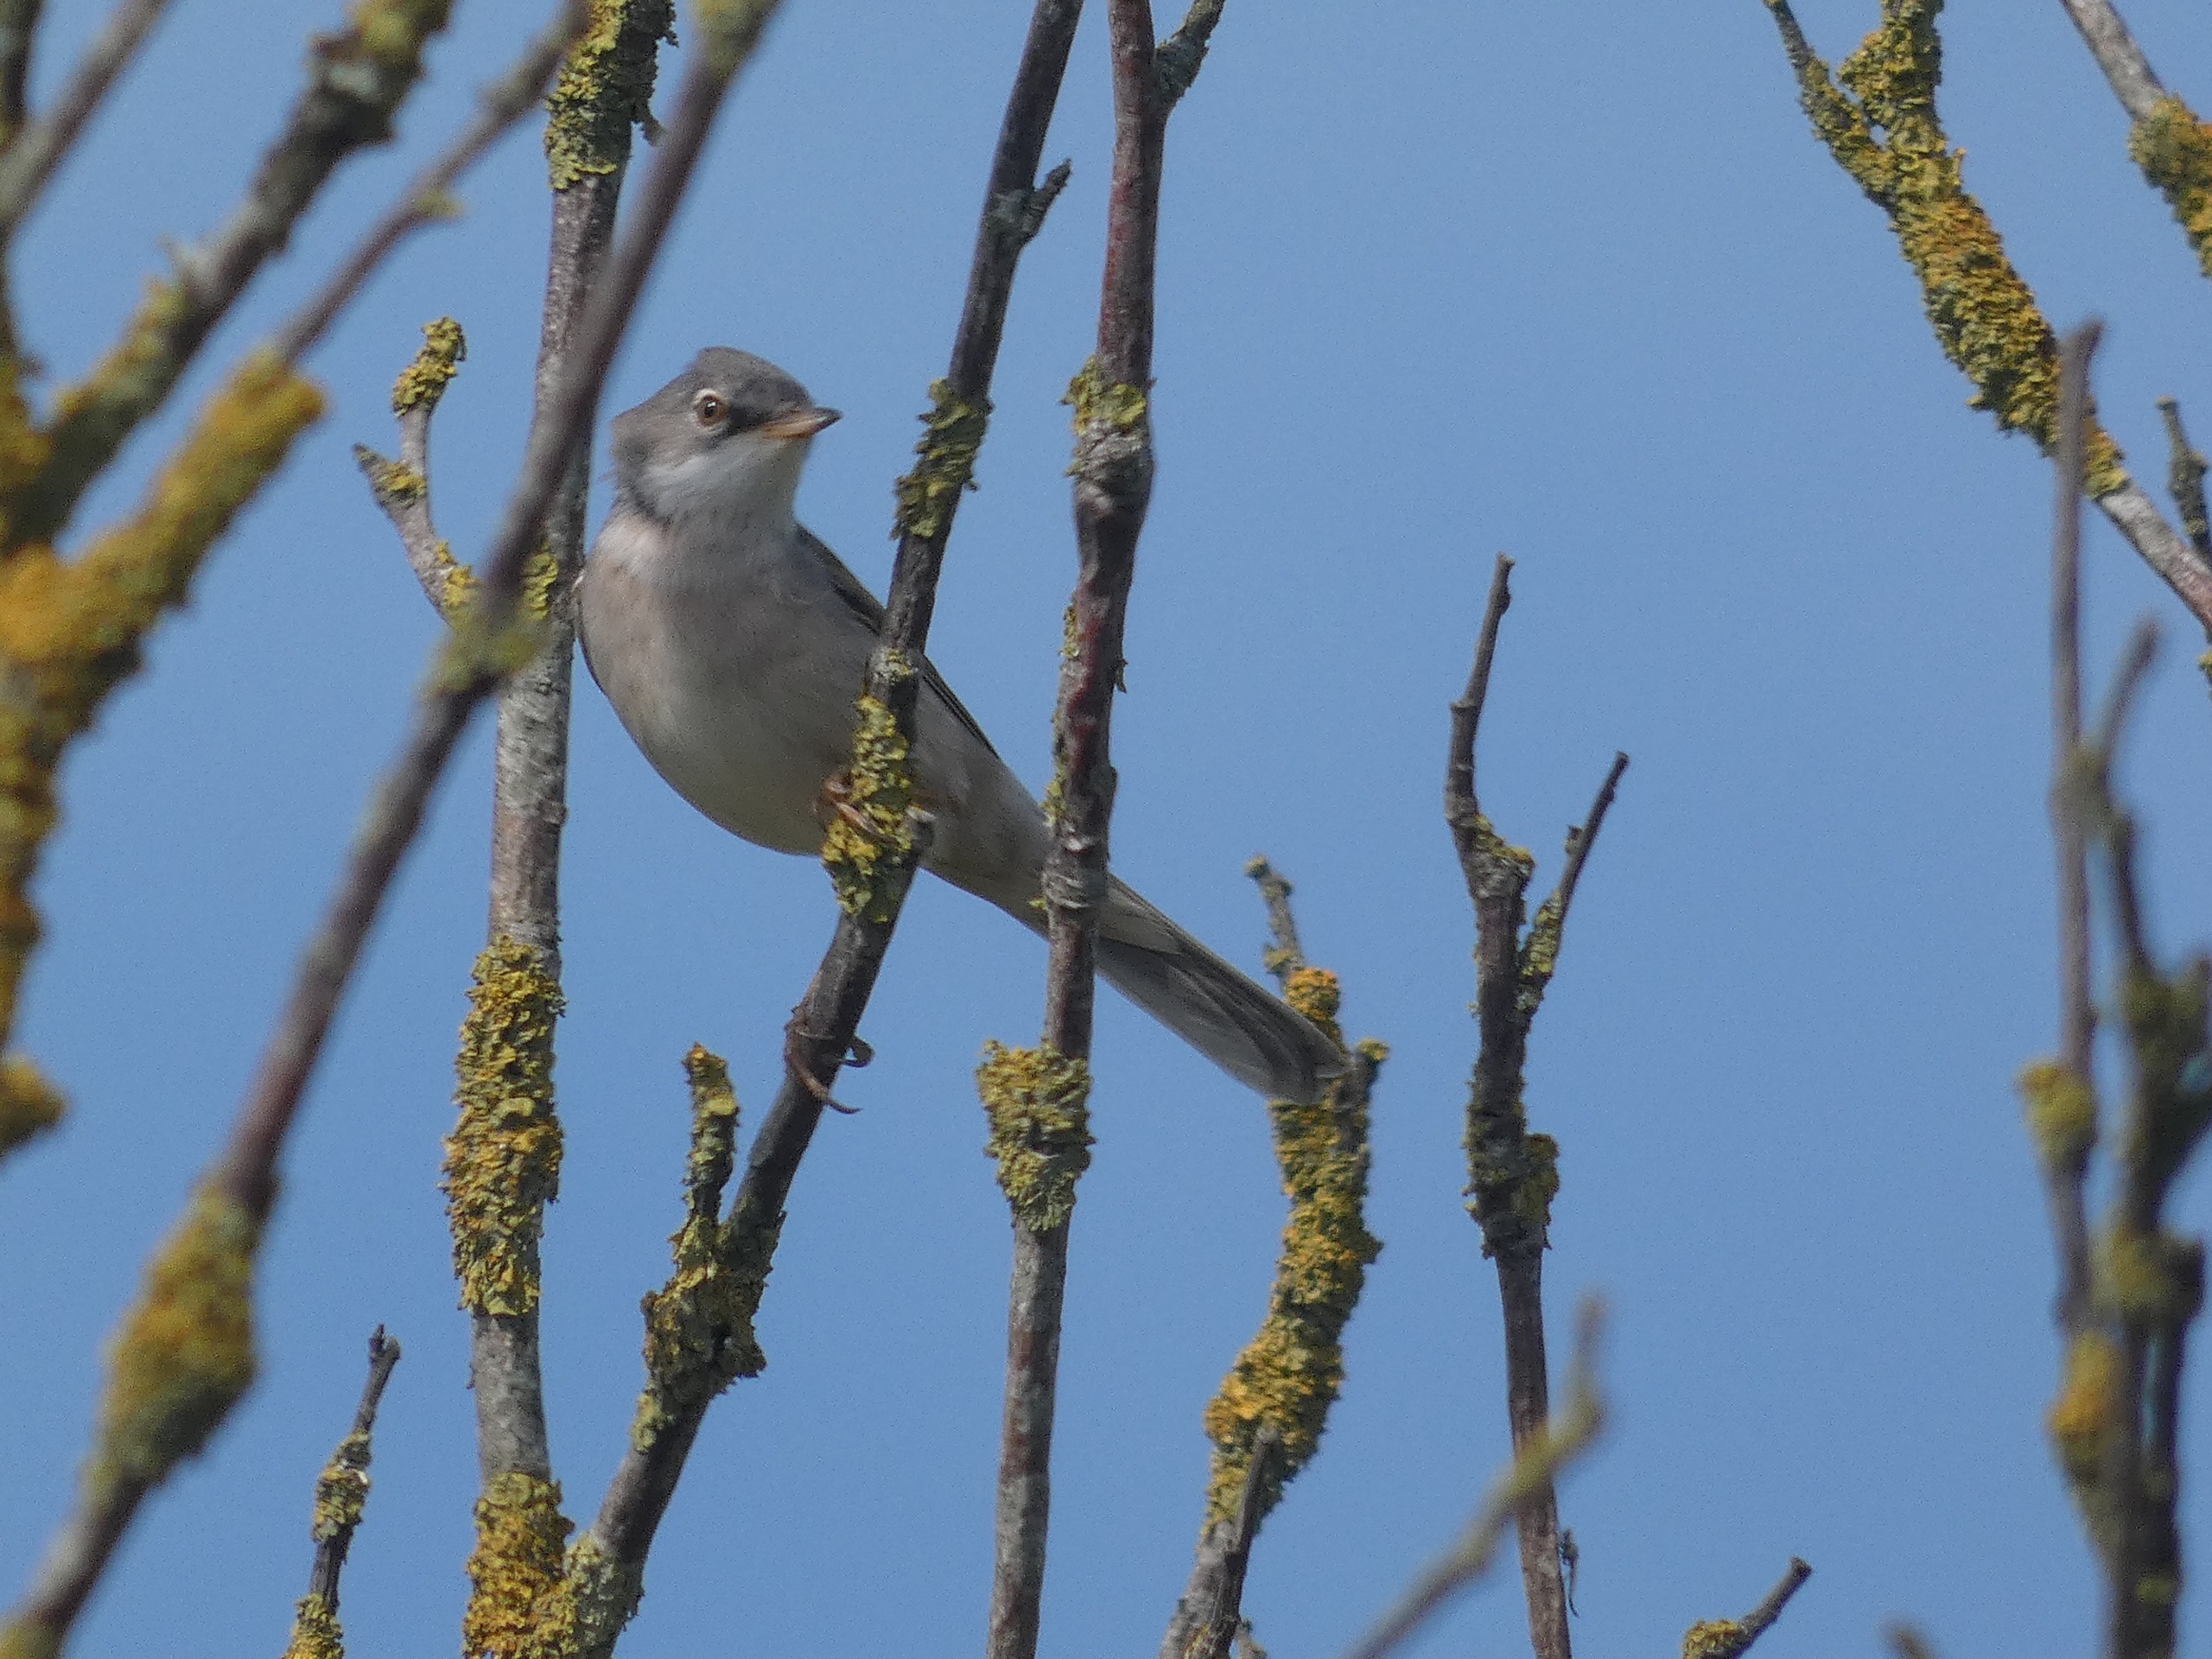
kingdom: Animalia
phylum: Chordata
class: Aves
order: Passeriformes
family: Sylviidae
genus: Sylvia
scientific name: Sylvia communis
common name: Tornsanger
